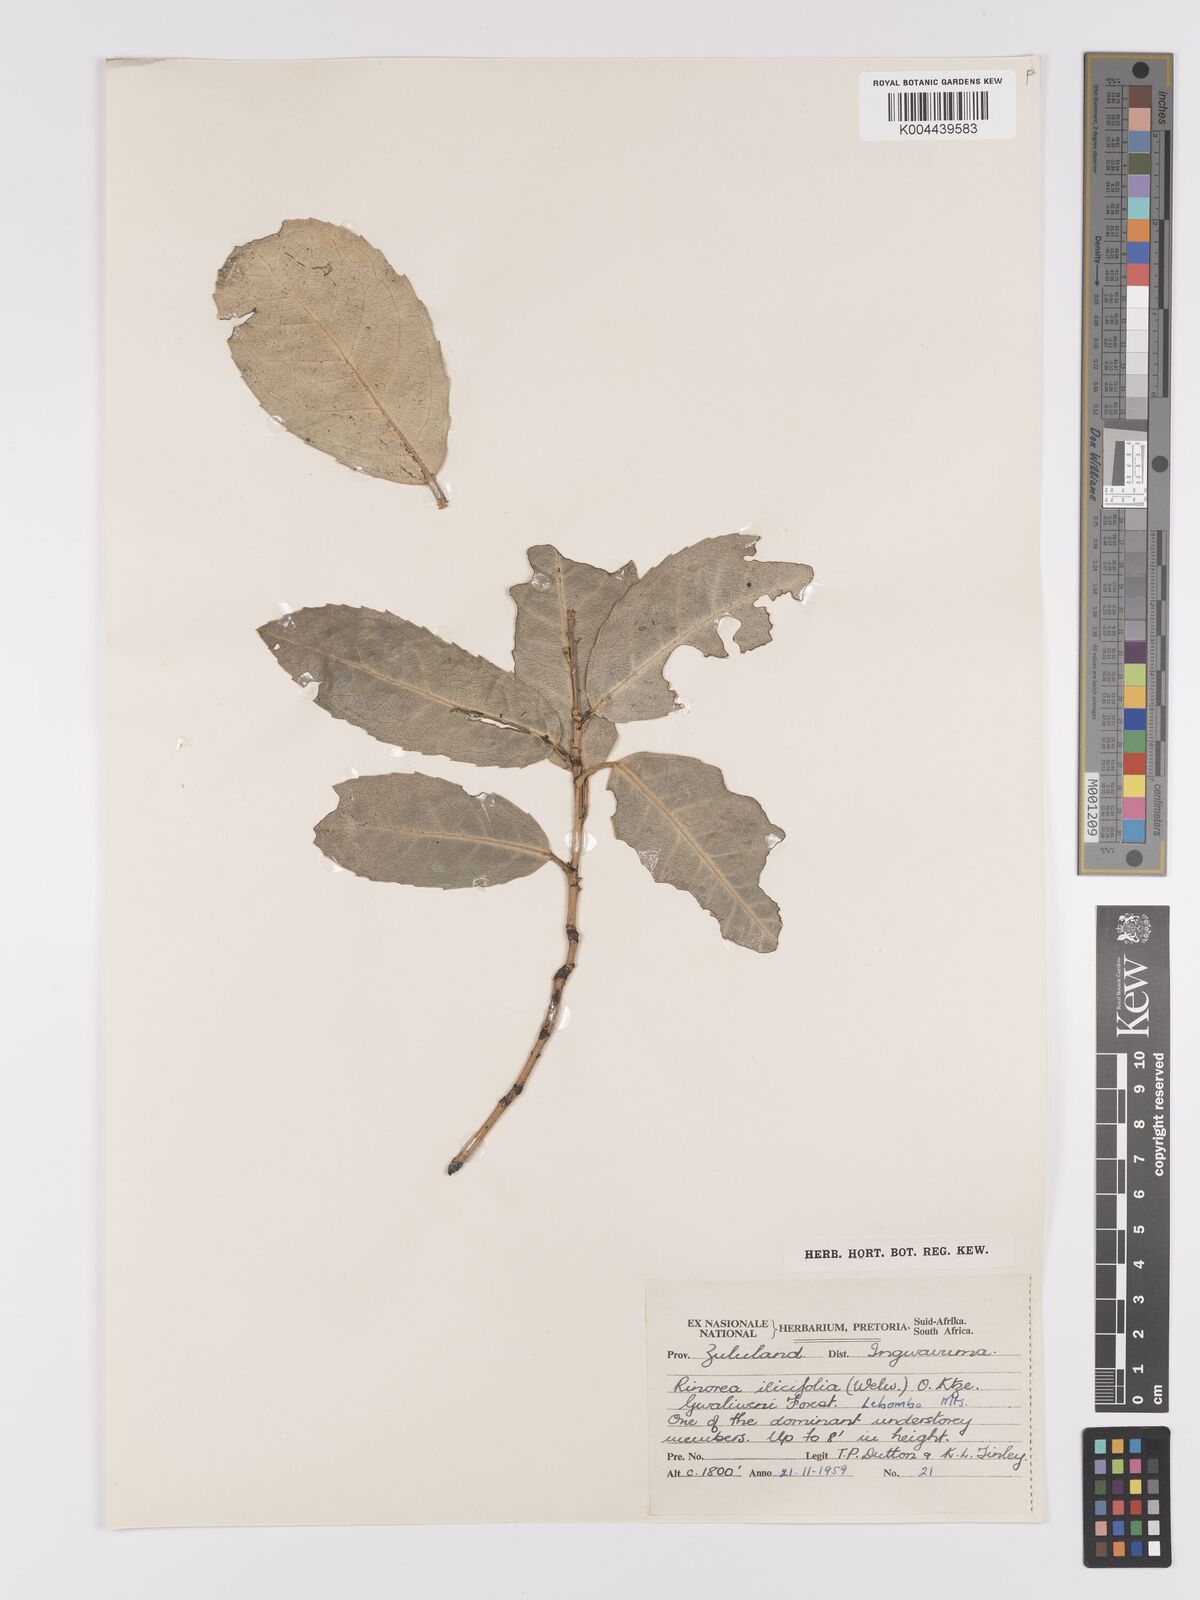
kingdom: Plantae
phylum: Tracheophyta
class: Magnoliopsida
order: Malpighiales
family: Violaceae
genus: Rinorea
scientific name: Rinorea ilicifolia
